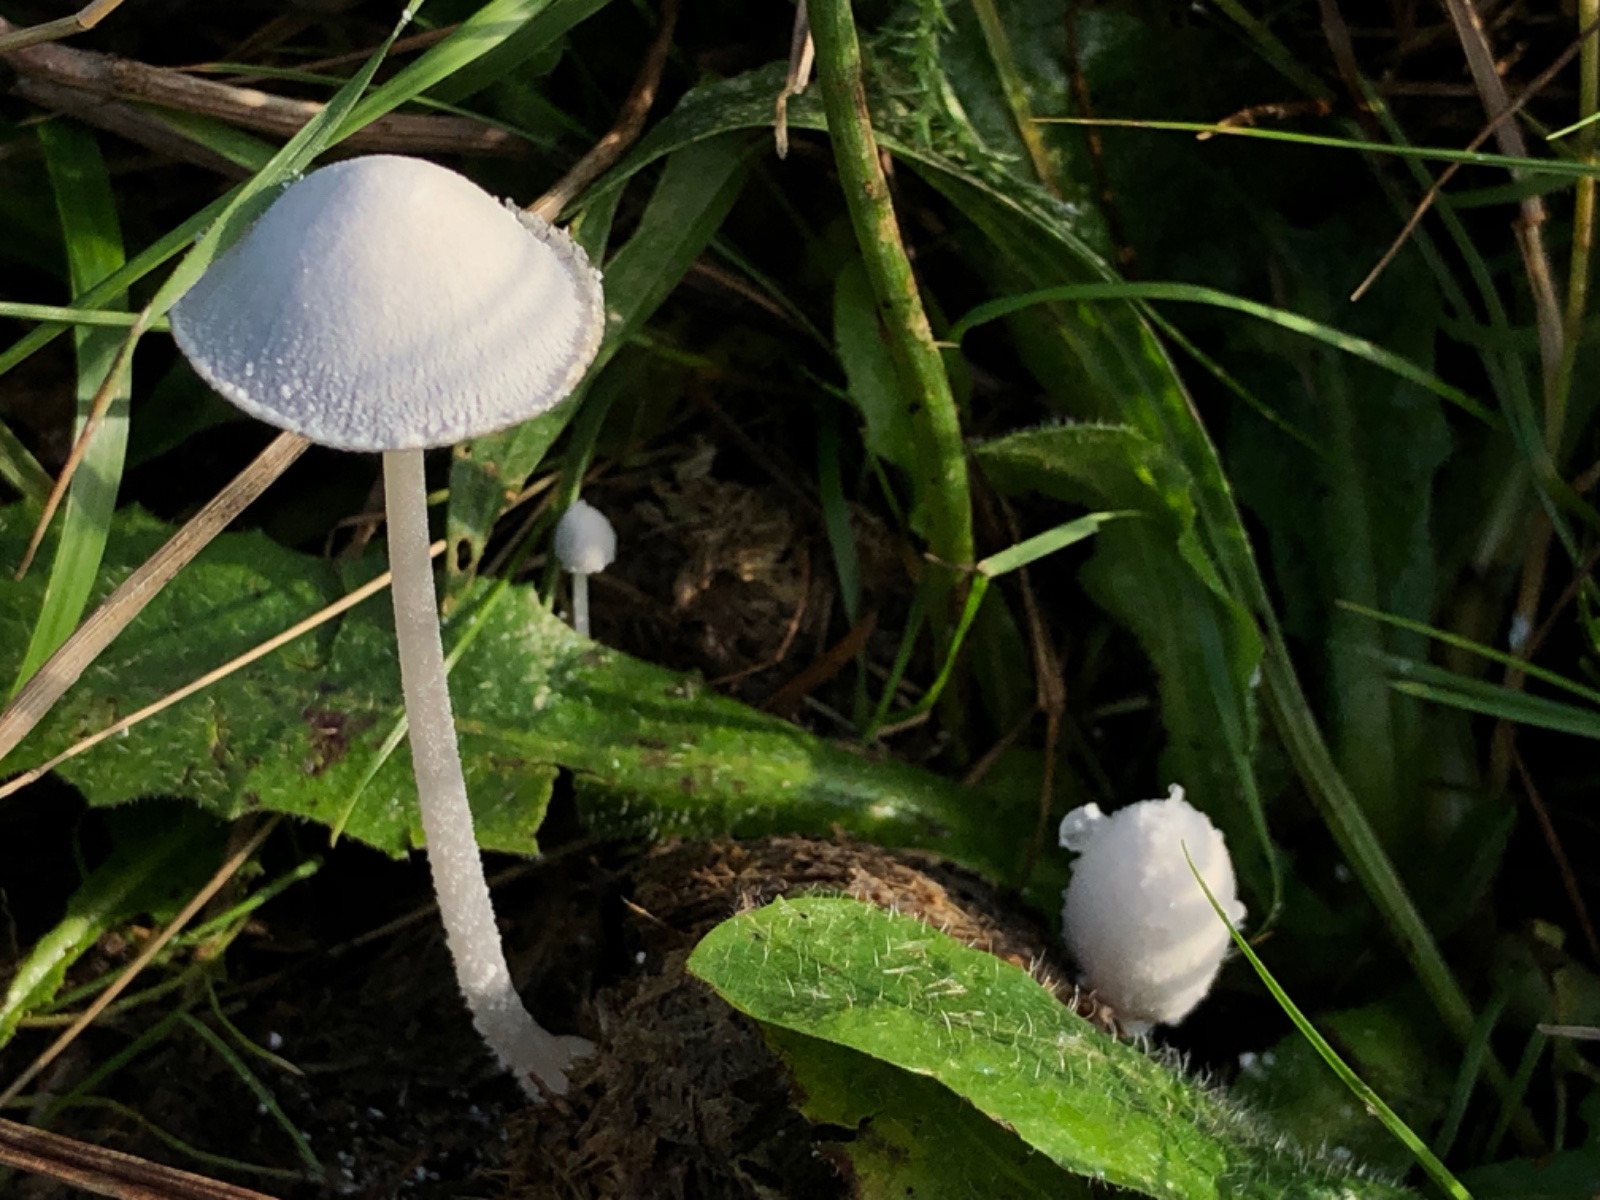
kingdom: Fungi
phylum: Basidiomycota
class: Agaricomycetes
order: Agaricales
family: Psathyrellaceae
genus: Coprinopsis
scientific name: Coprinopsis nivea
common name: snehvid blækhat
